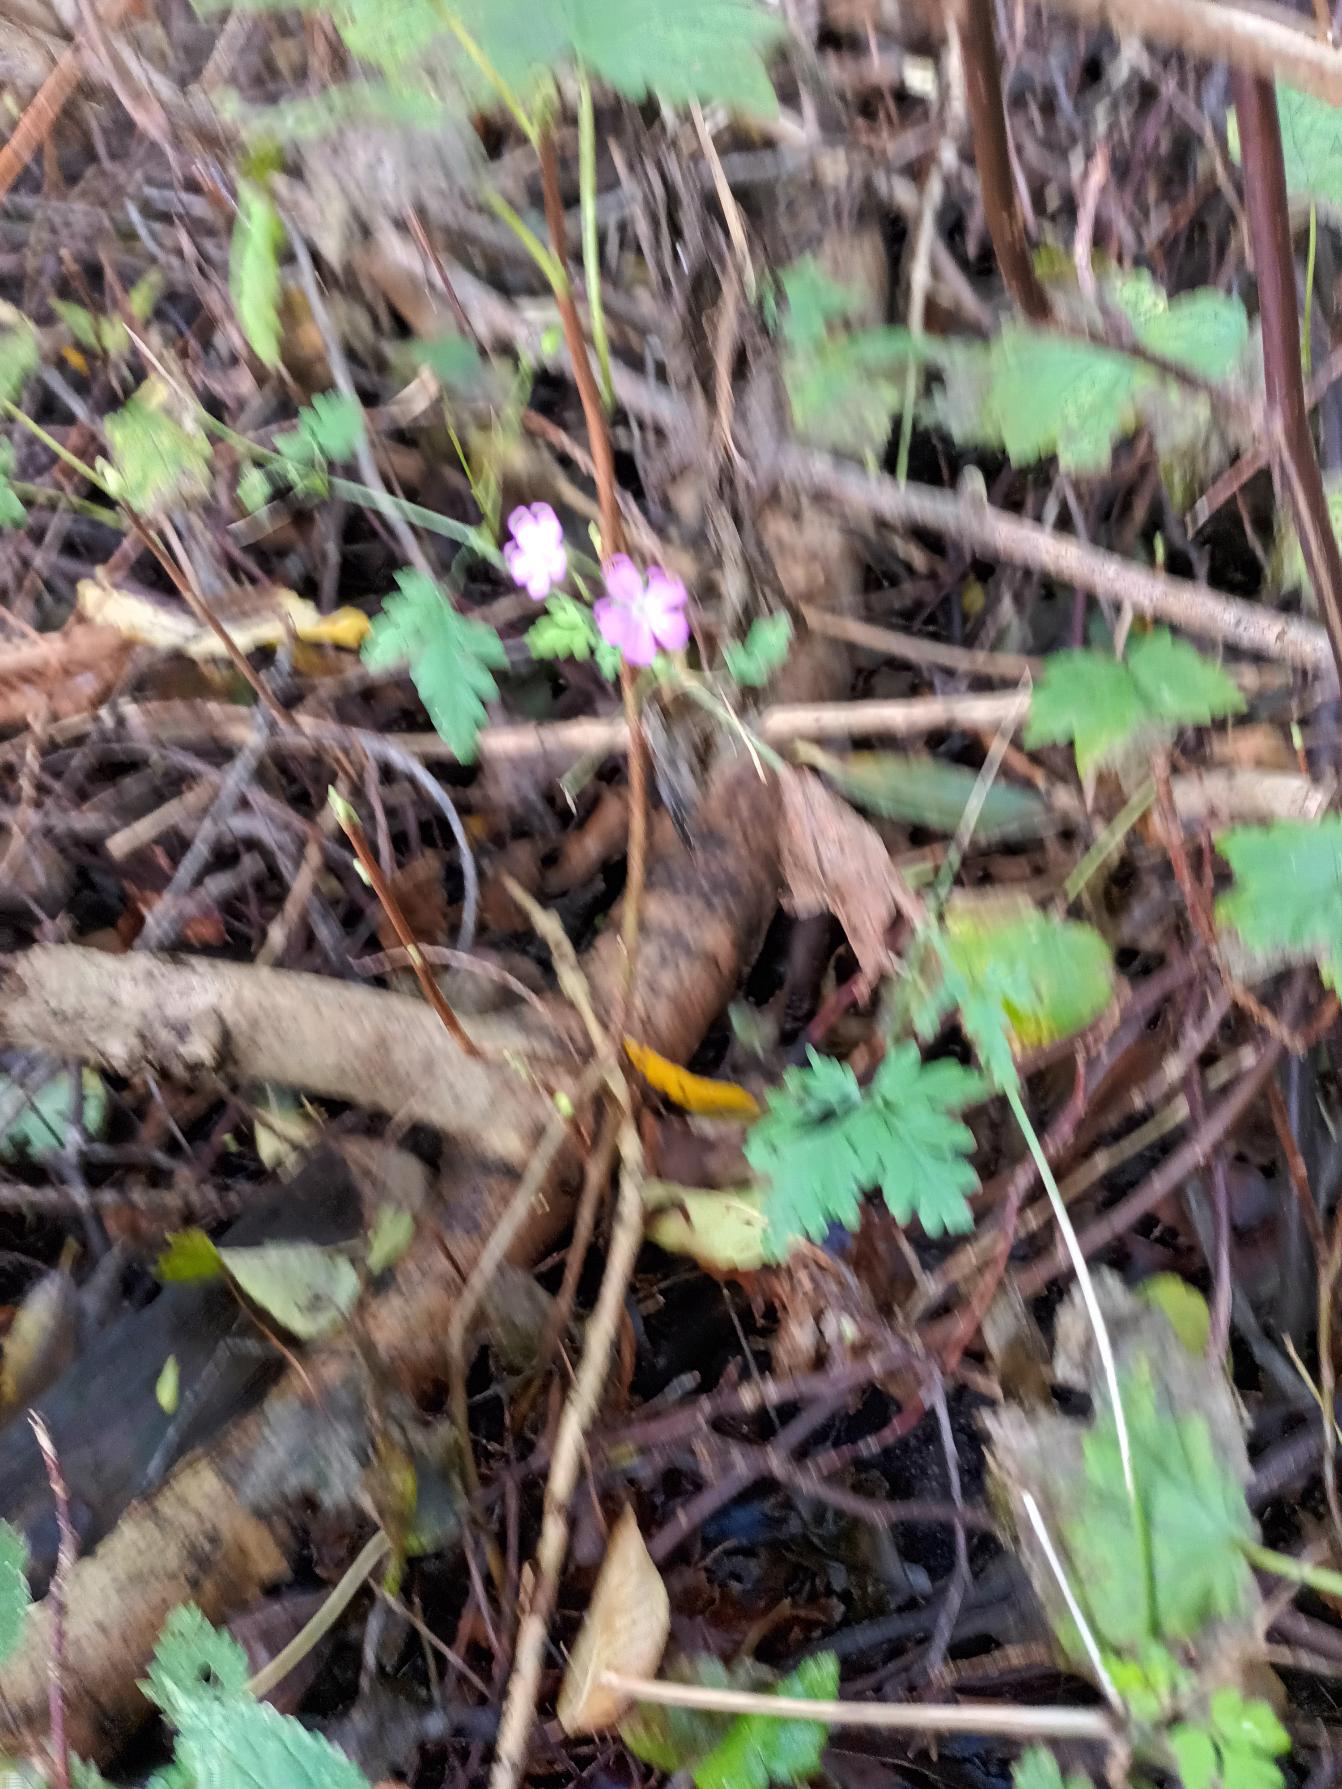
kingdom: Plantae
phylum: Tracheophyta
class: Magnoliopsida
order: Geraniales
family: Geraniaceae
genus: Geranium
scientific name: Geranium robertianum
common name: Stinkende storkenæb
